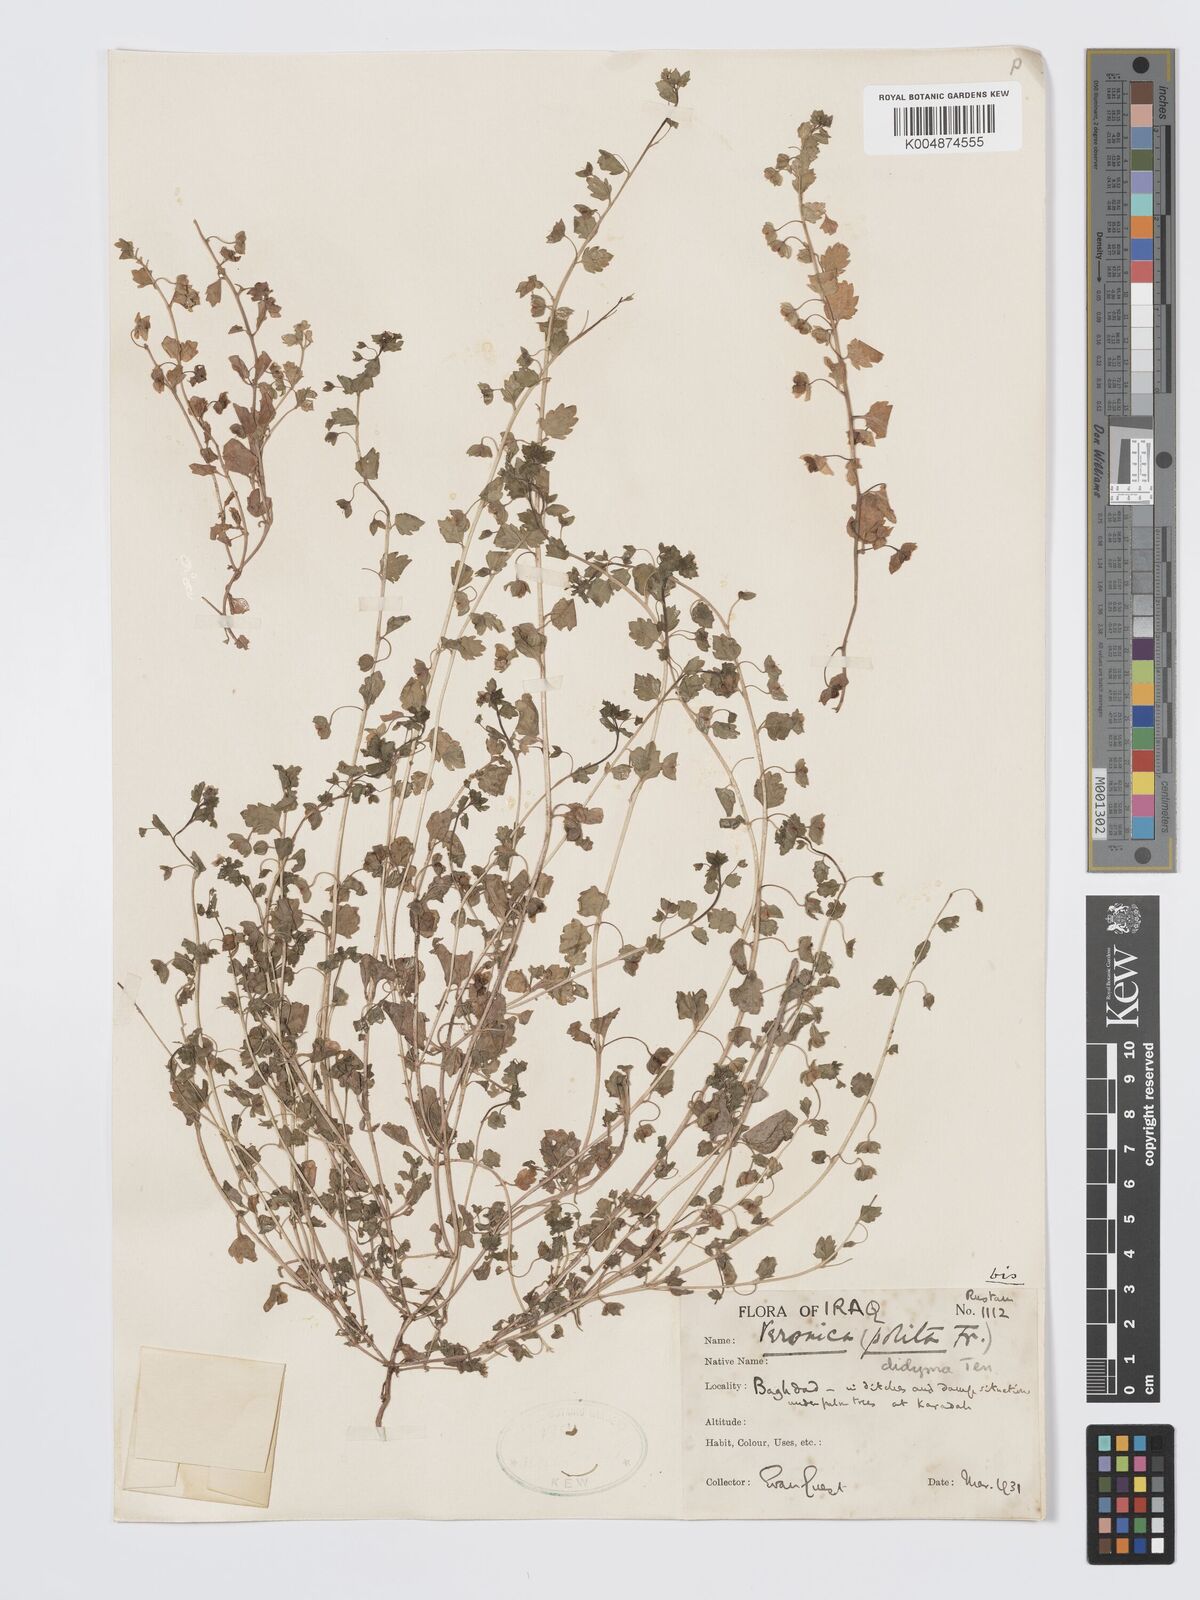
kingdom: Plantae
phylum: Tracheophyta
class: Magnoliopsida
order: Lamiales
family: Plantaginaceae
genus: Veronica
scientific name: Veronica
